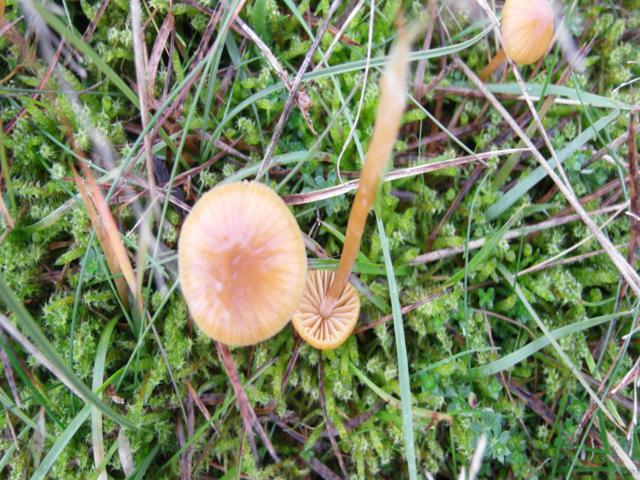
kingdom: Fungi
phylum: Basidiomycota
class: Agaricomycetes
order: Agaricales
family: Hymenogastraceae
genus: Galerina
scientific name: Galerina pumila
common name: honninggul hjelmhat
